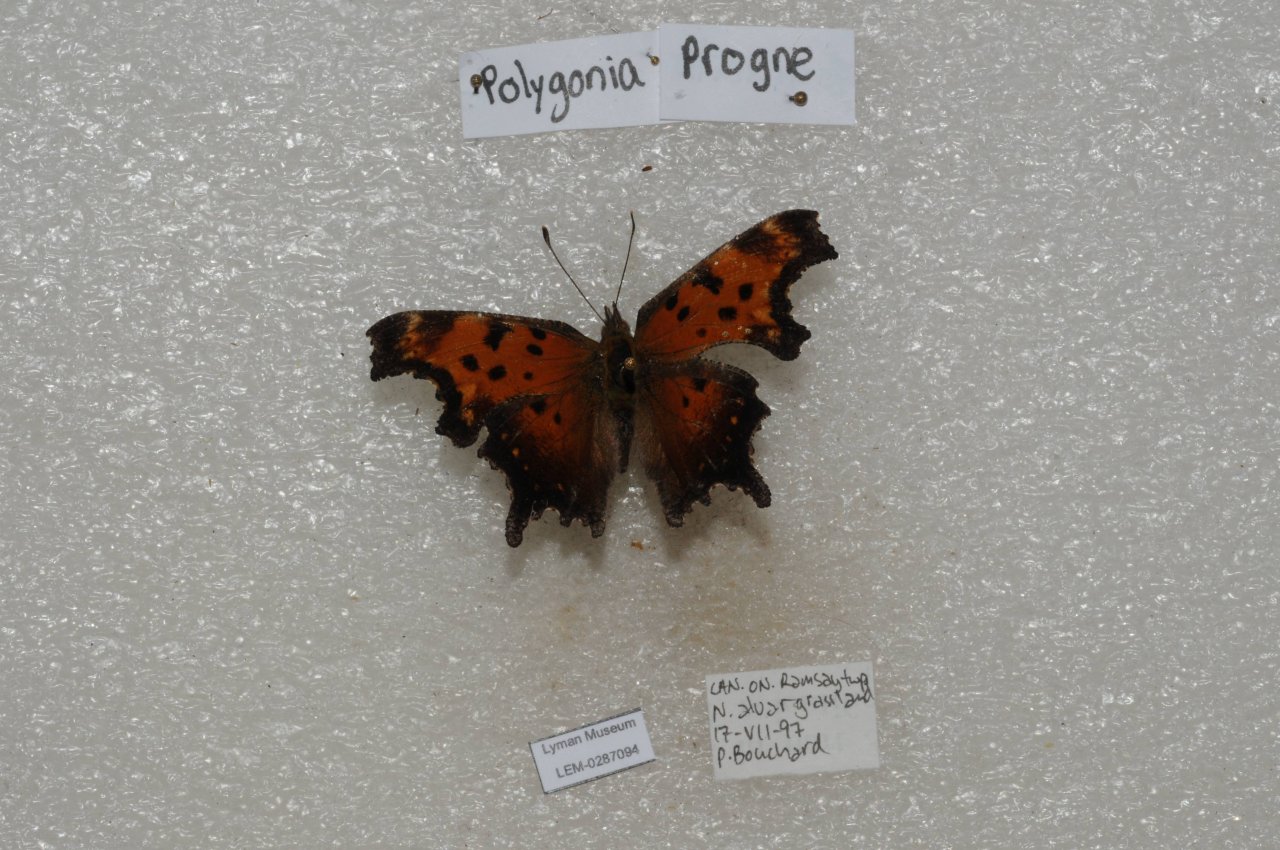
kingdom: Animalia
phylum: Arthropoda
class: Insecta
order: Lepidoptera
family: Nymphalidae
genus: Polygonia
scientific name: Polygonia progne
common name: Gray Comma
